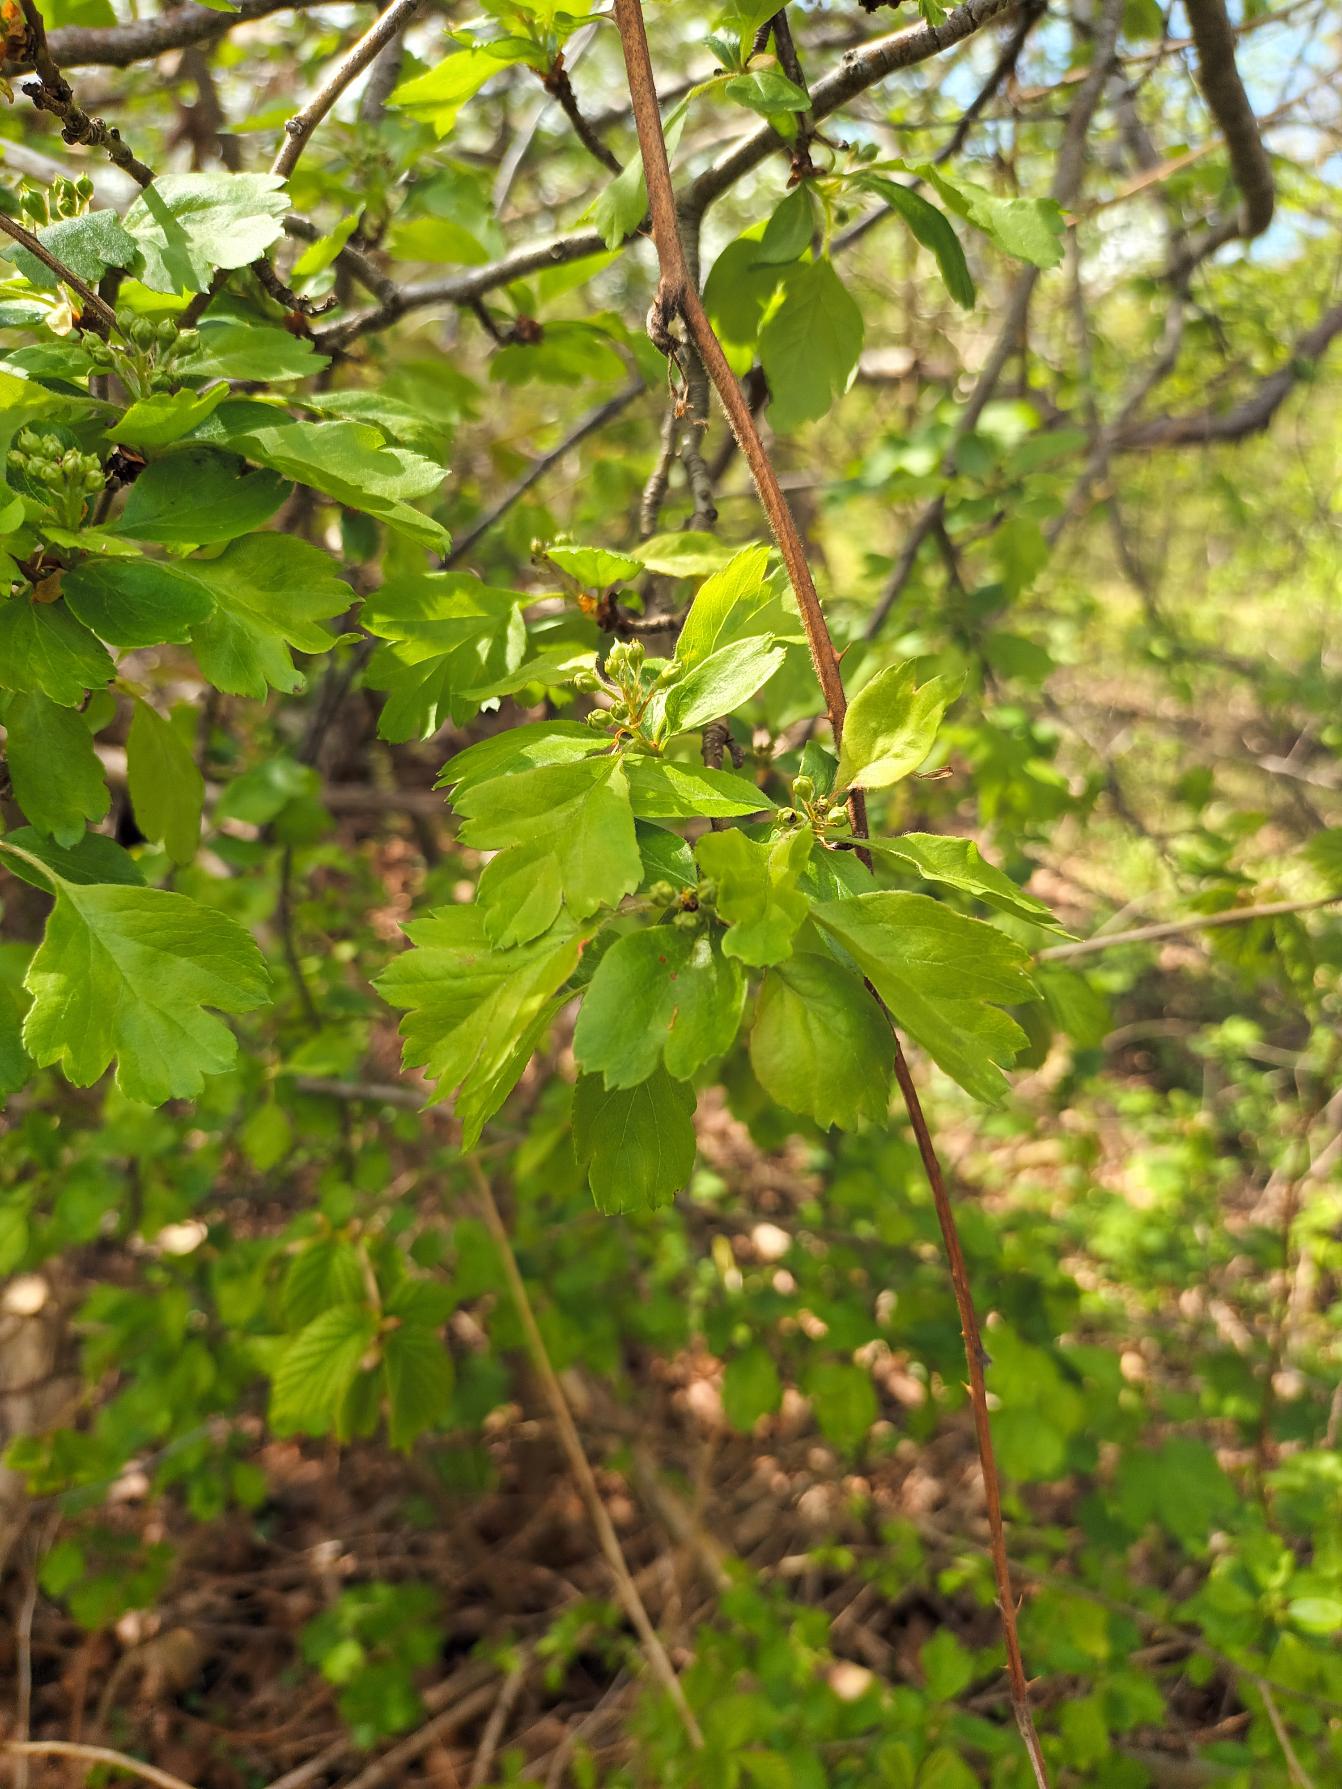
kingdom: Plantae
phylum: Tracheophyta
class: Magnoliopsida
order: Rosales
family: Rosaceae
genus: Crataegus
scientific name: Crataegus media
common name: Almindelig hvidtjørn × engriflet hvidtjørn
